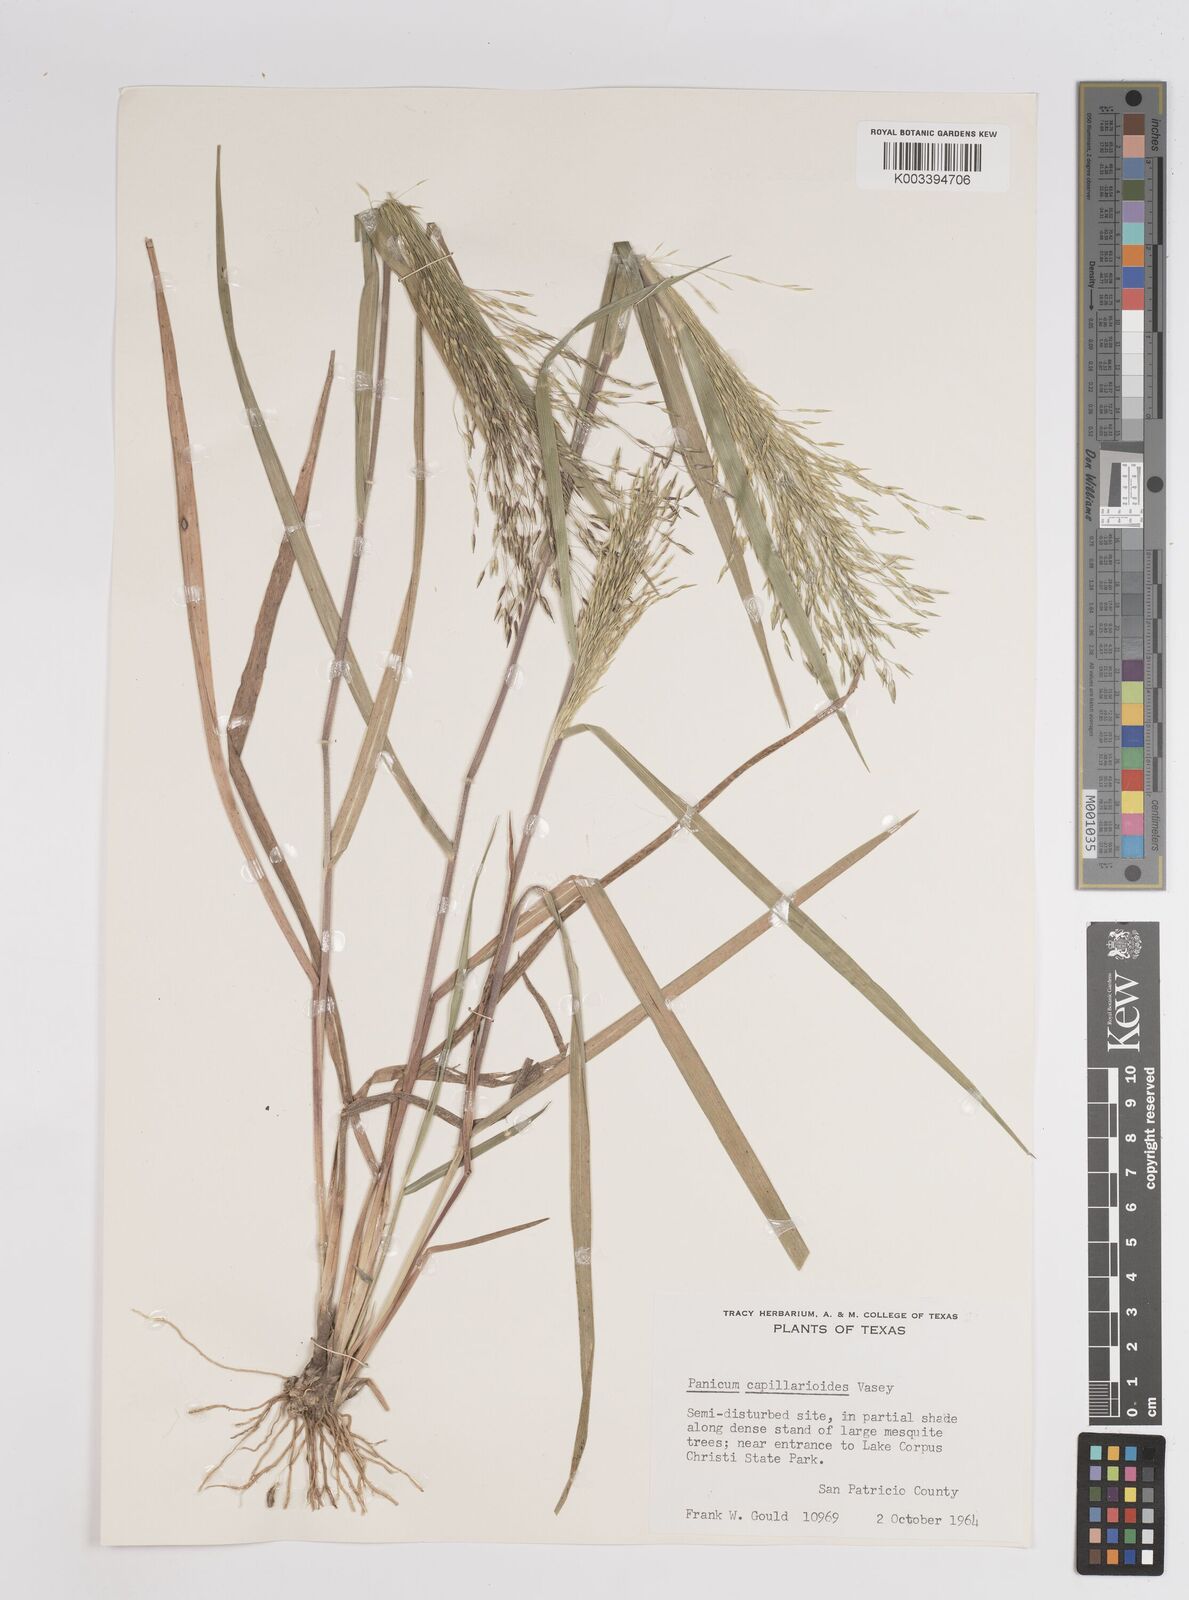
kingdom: Plantae
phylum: Tracheophyta
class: Liliopsida
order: Poales
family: Poaceae
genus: Panicum
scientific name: Panicum capillarioides
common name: Long-beak witchgrass
